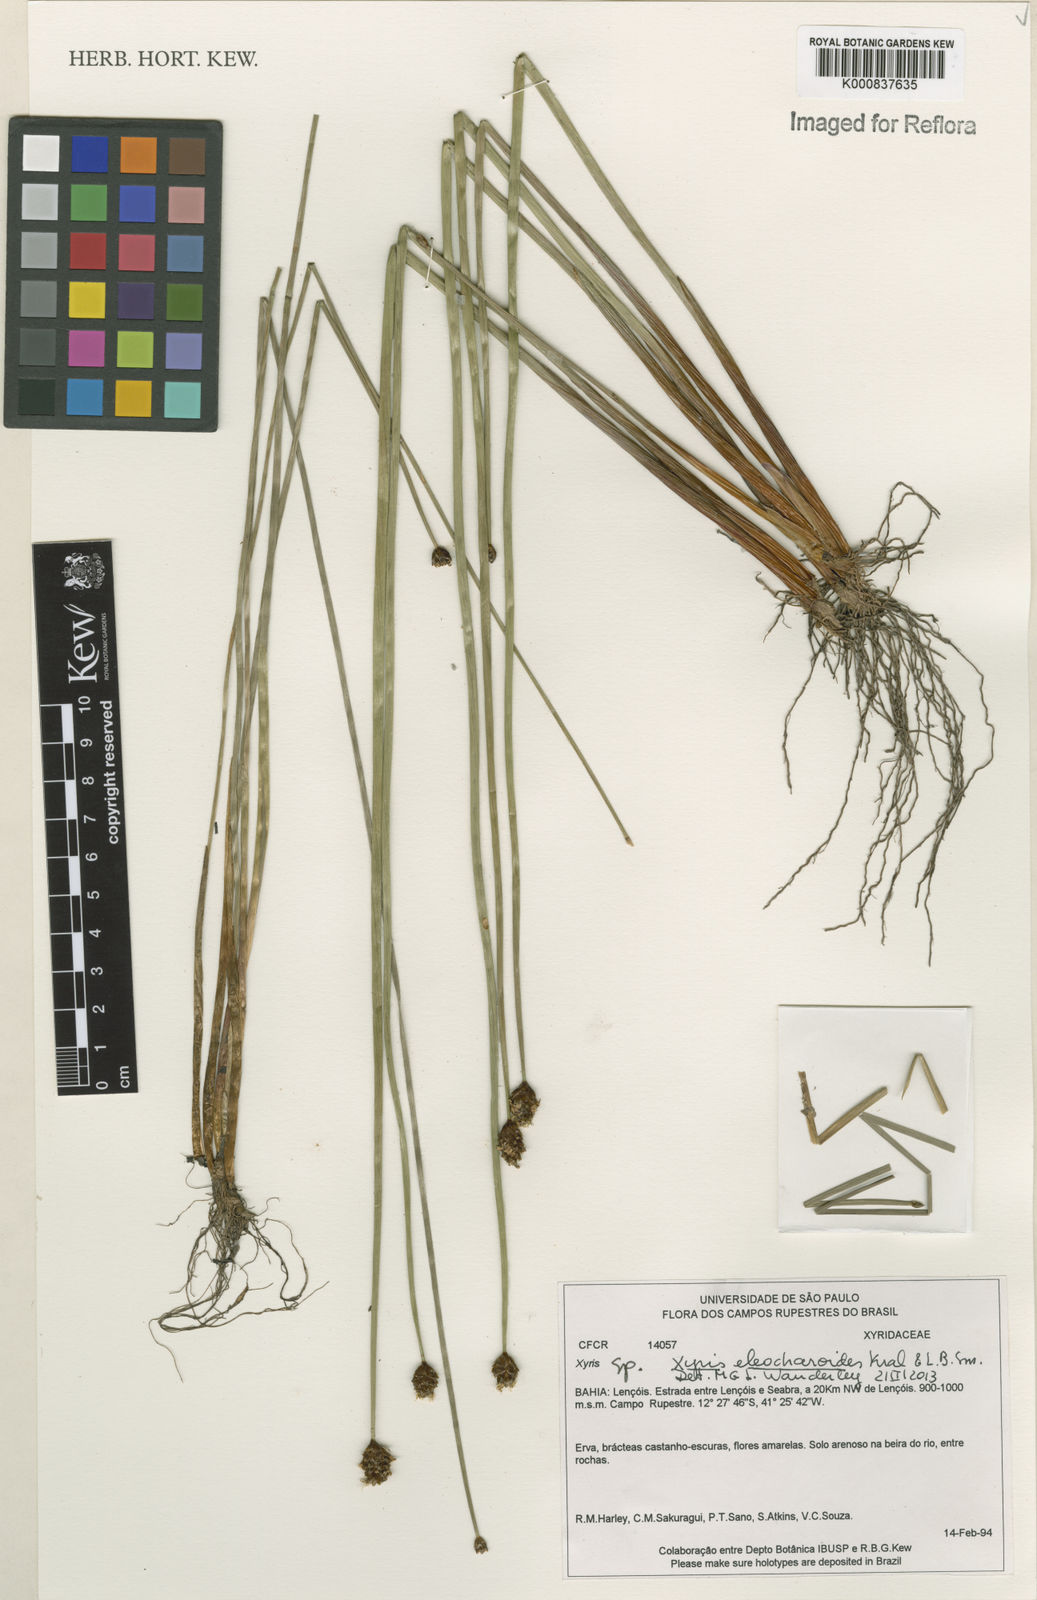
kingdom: Plantae
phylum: Tracheophyta
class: Liliopsida
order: Poales
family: Xyridaceae
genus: Xyris
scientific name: Xyris eleocharoides
